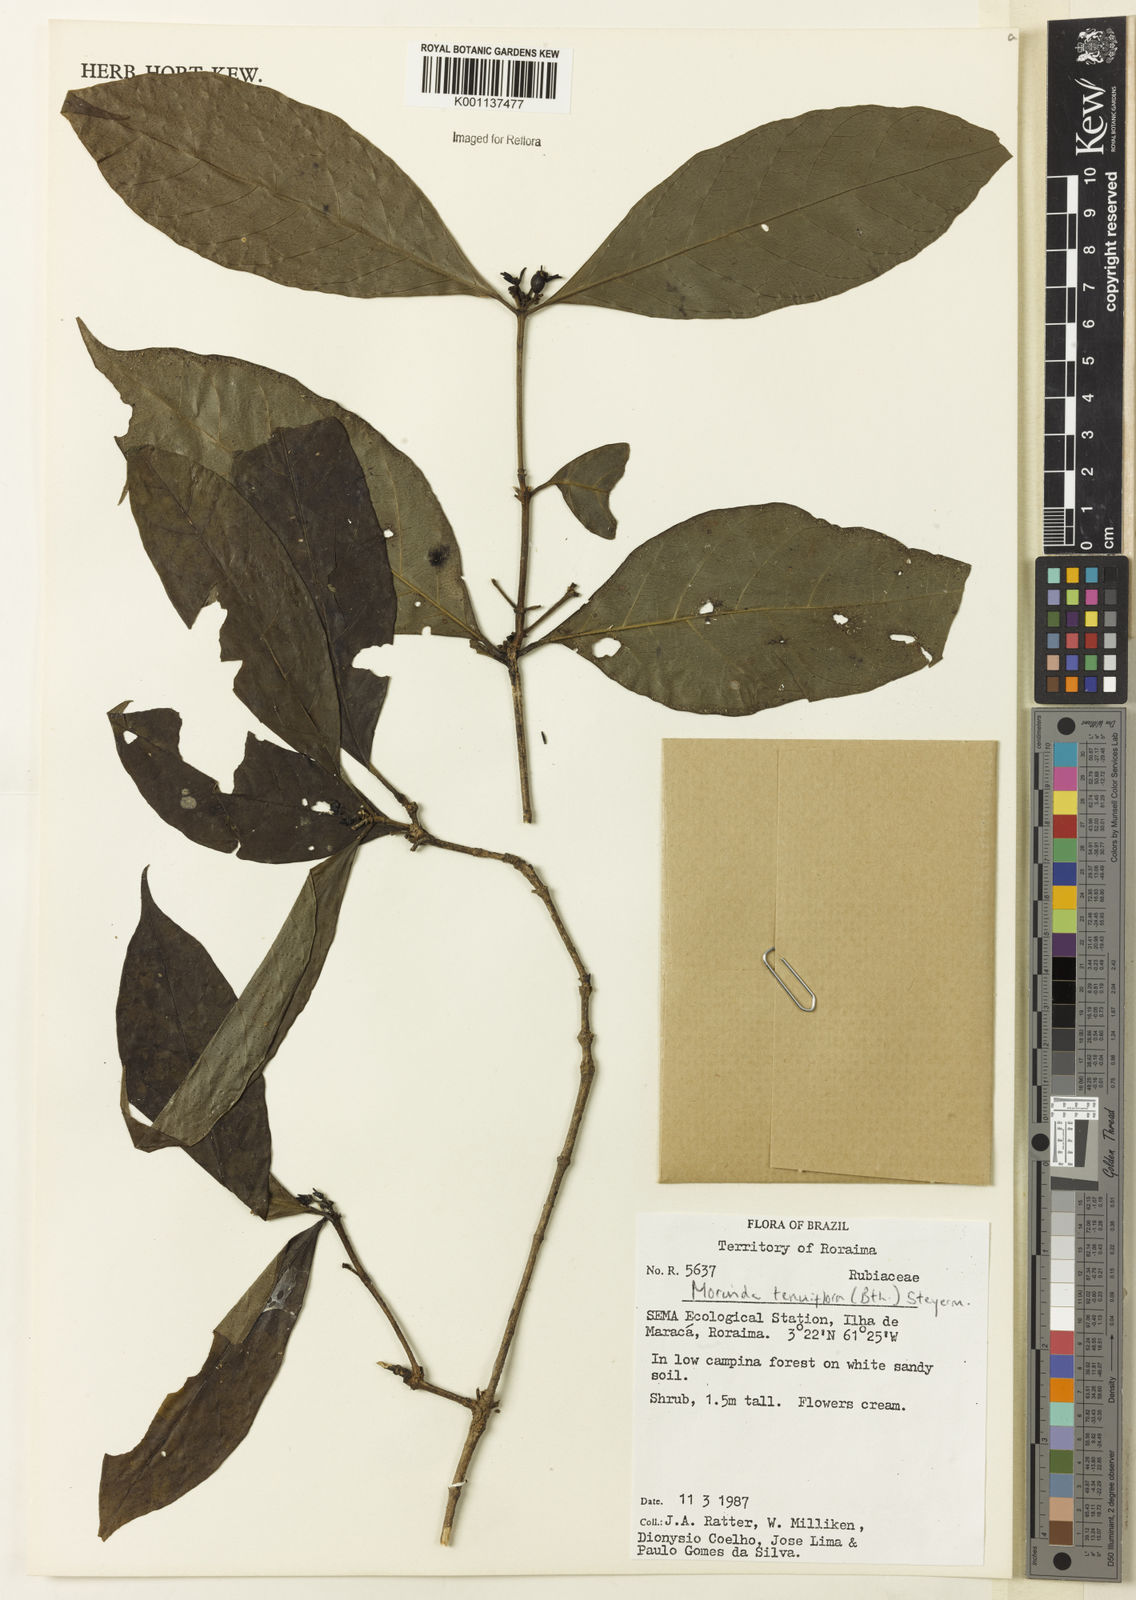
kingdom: Plantae
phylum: Tracheophyta
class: Magnoliopsida
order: Gentianales
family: Rubiaceae
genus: Appunia
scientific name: Appunia tenuiflora
